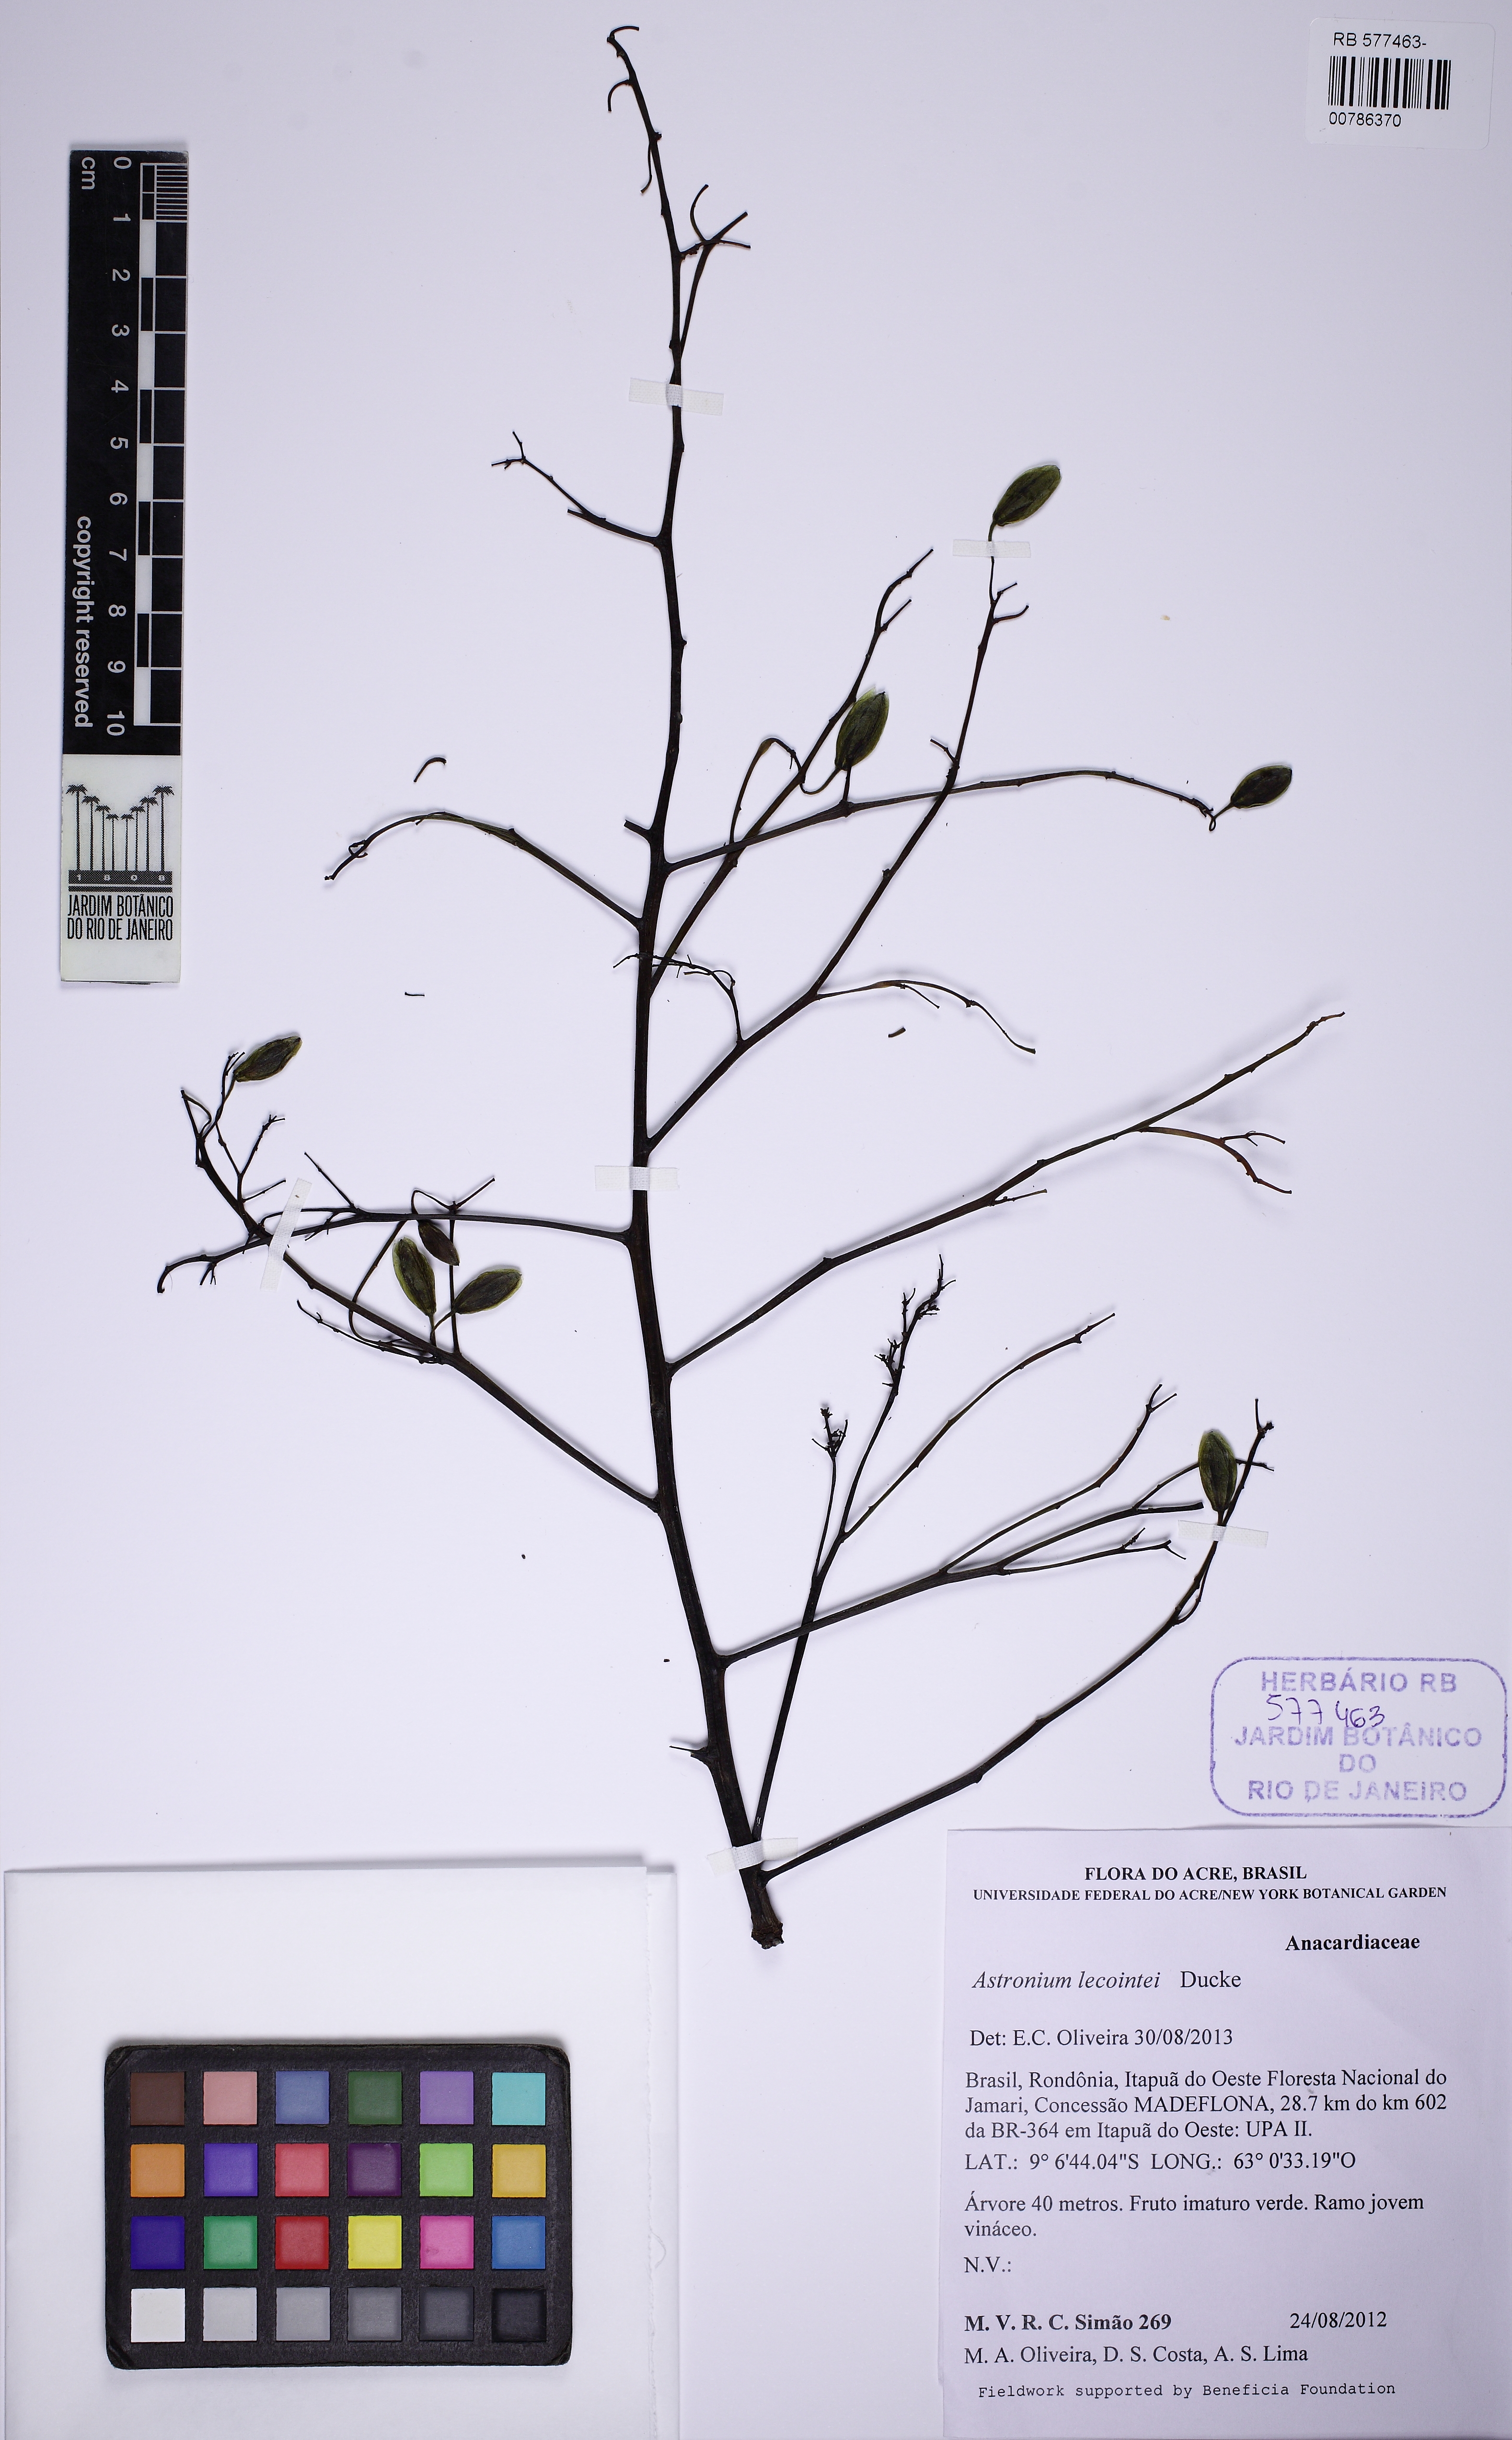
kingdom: Plantae
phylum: Tracheophyta
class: Magnoliopsida
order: Sapindales
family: Anacardiaceae
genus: Astronium
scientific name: Astronium lecointei
